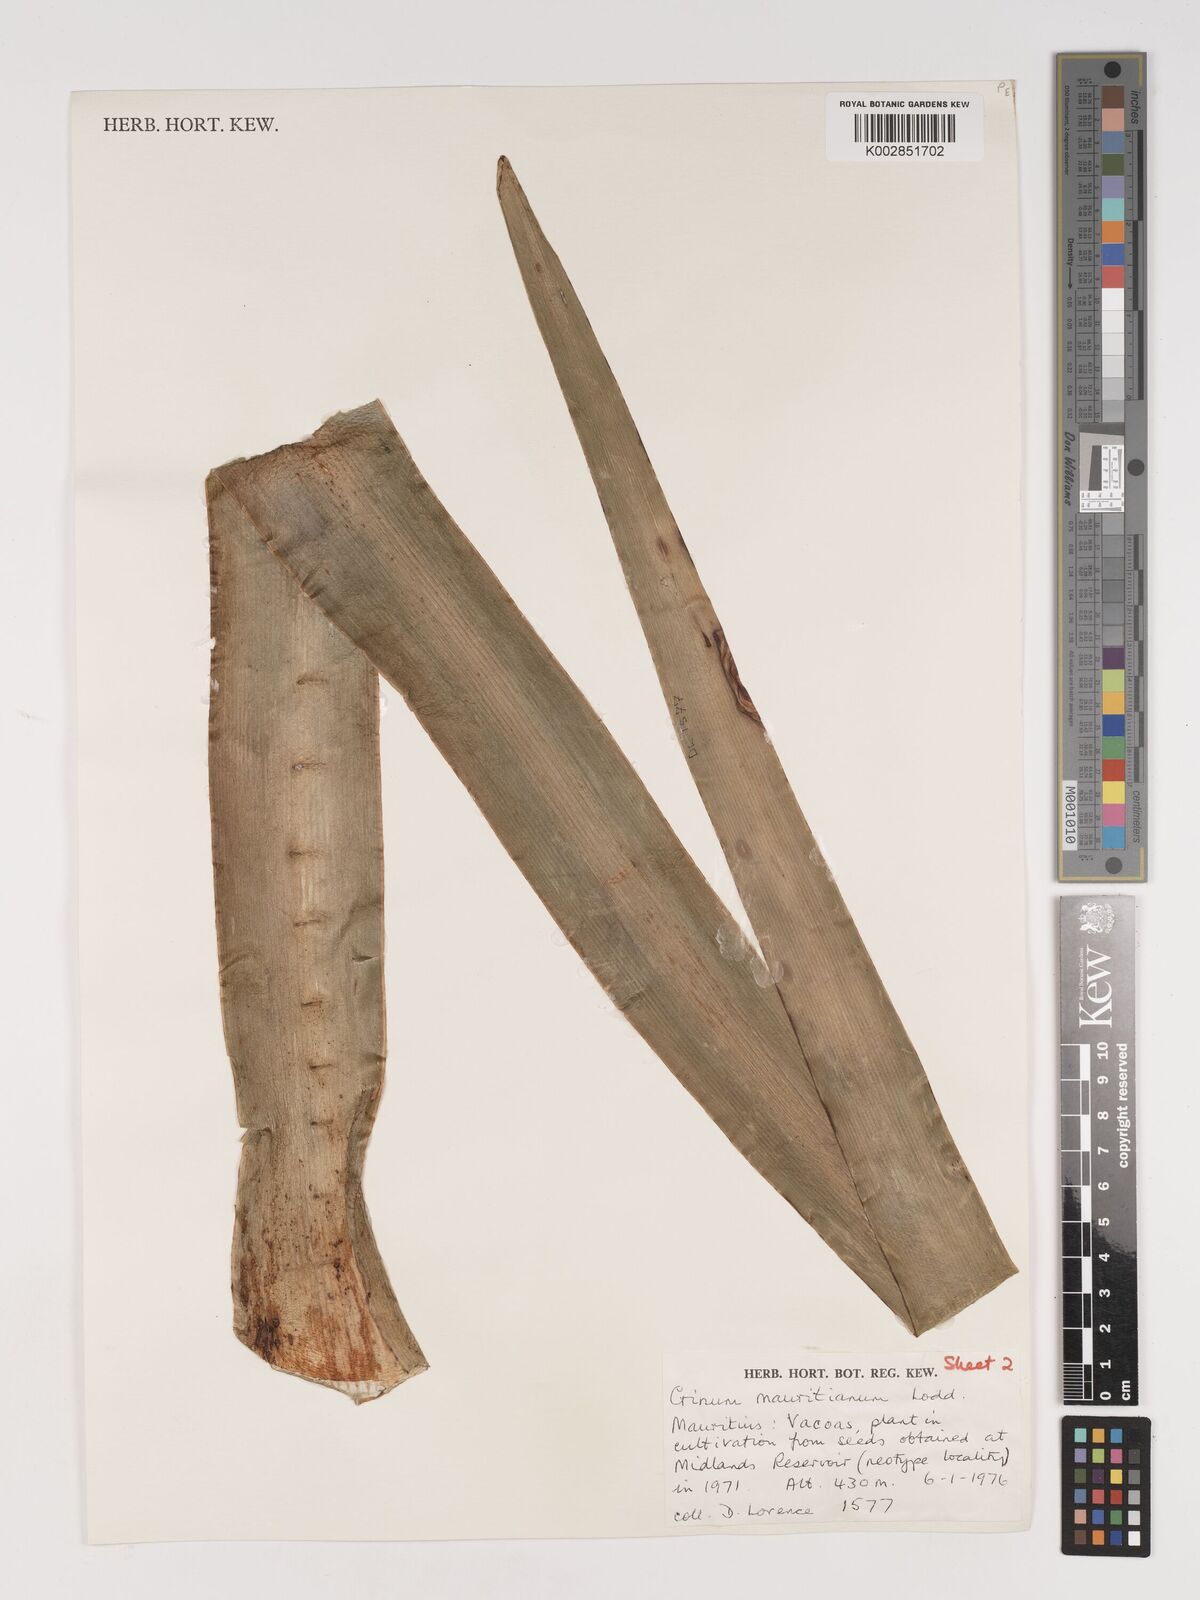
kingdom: Plantae
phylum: Tracheophyta
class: Liliopsida
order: Asparagales
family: Amaryllidaceae
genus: Crinum
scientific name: Crinum mauritianum
